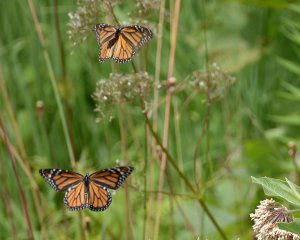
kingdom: Animalia
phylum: Arthropoda
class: Insecta
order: Lepidoptera
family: Nymphalidae
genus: Danaus
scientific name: Danaus plexippus
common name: Monarch
